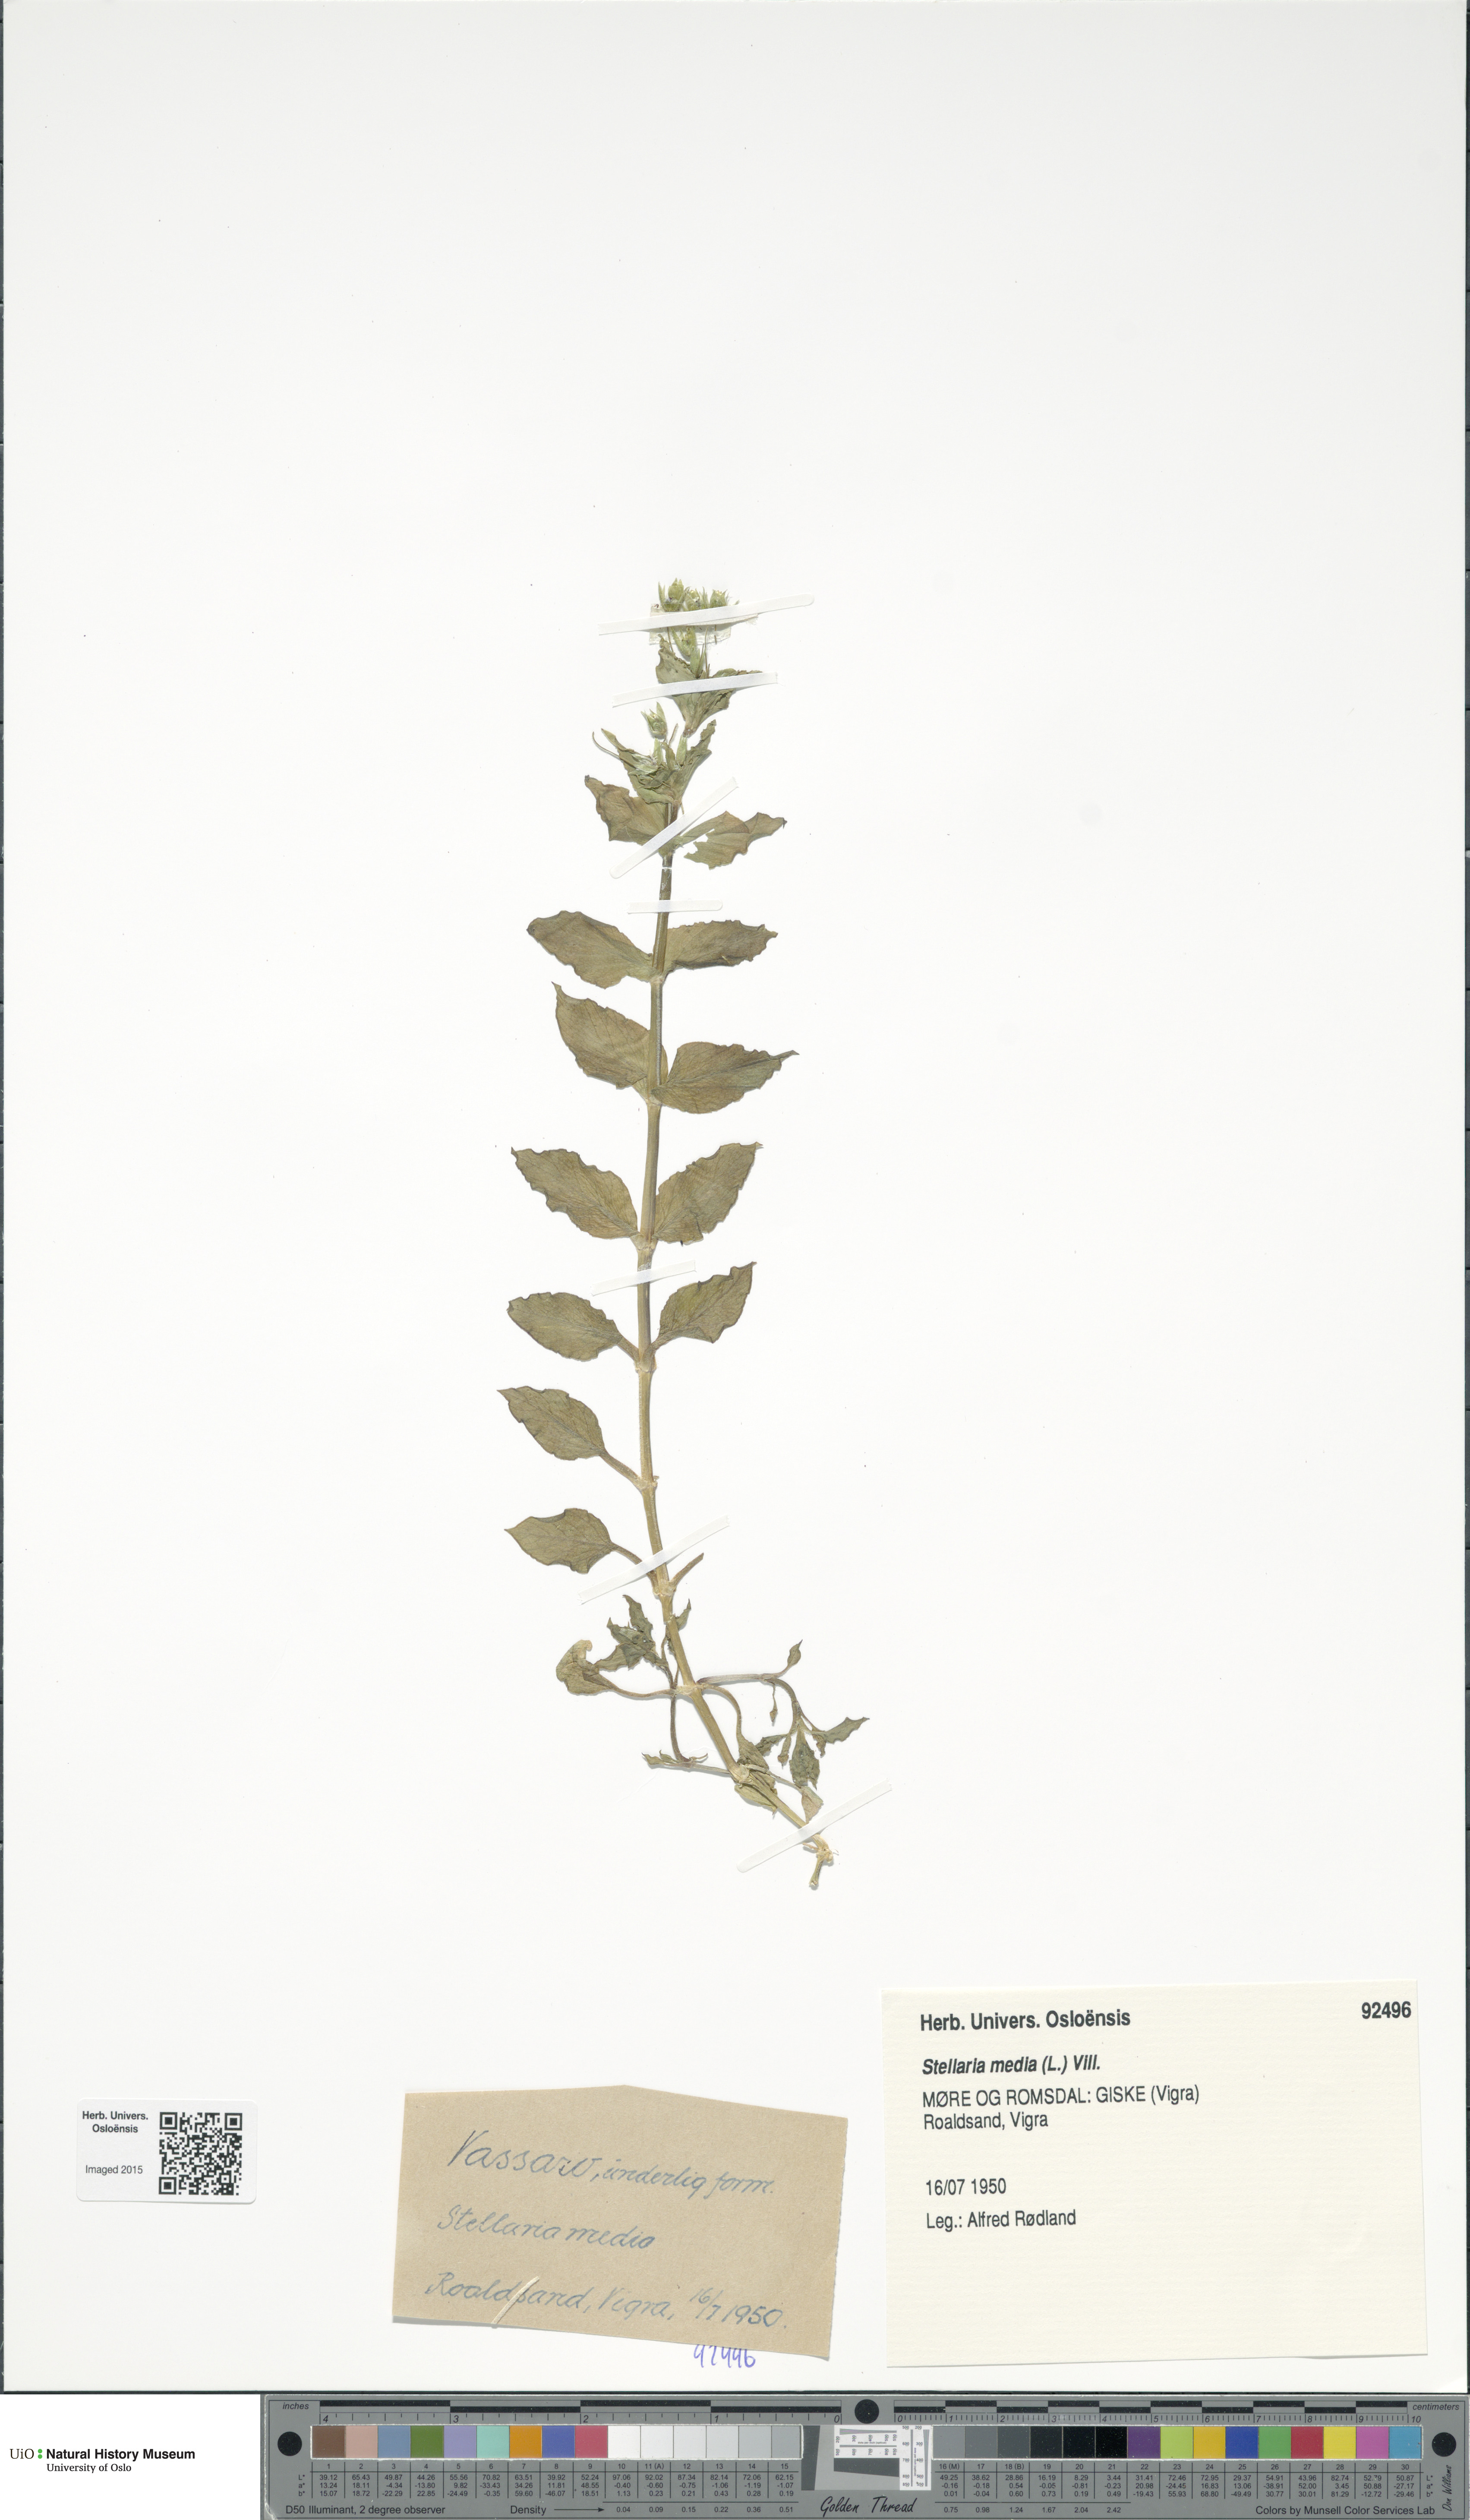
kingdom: Plantae
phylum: Tracheophyta
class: Magnoliopsida
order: Caryophyllales
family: Caryophyllaceae
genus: Stellaria
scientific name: Stellaria media
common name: Common chickweed
